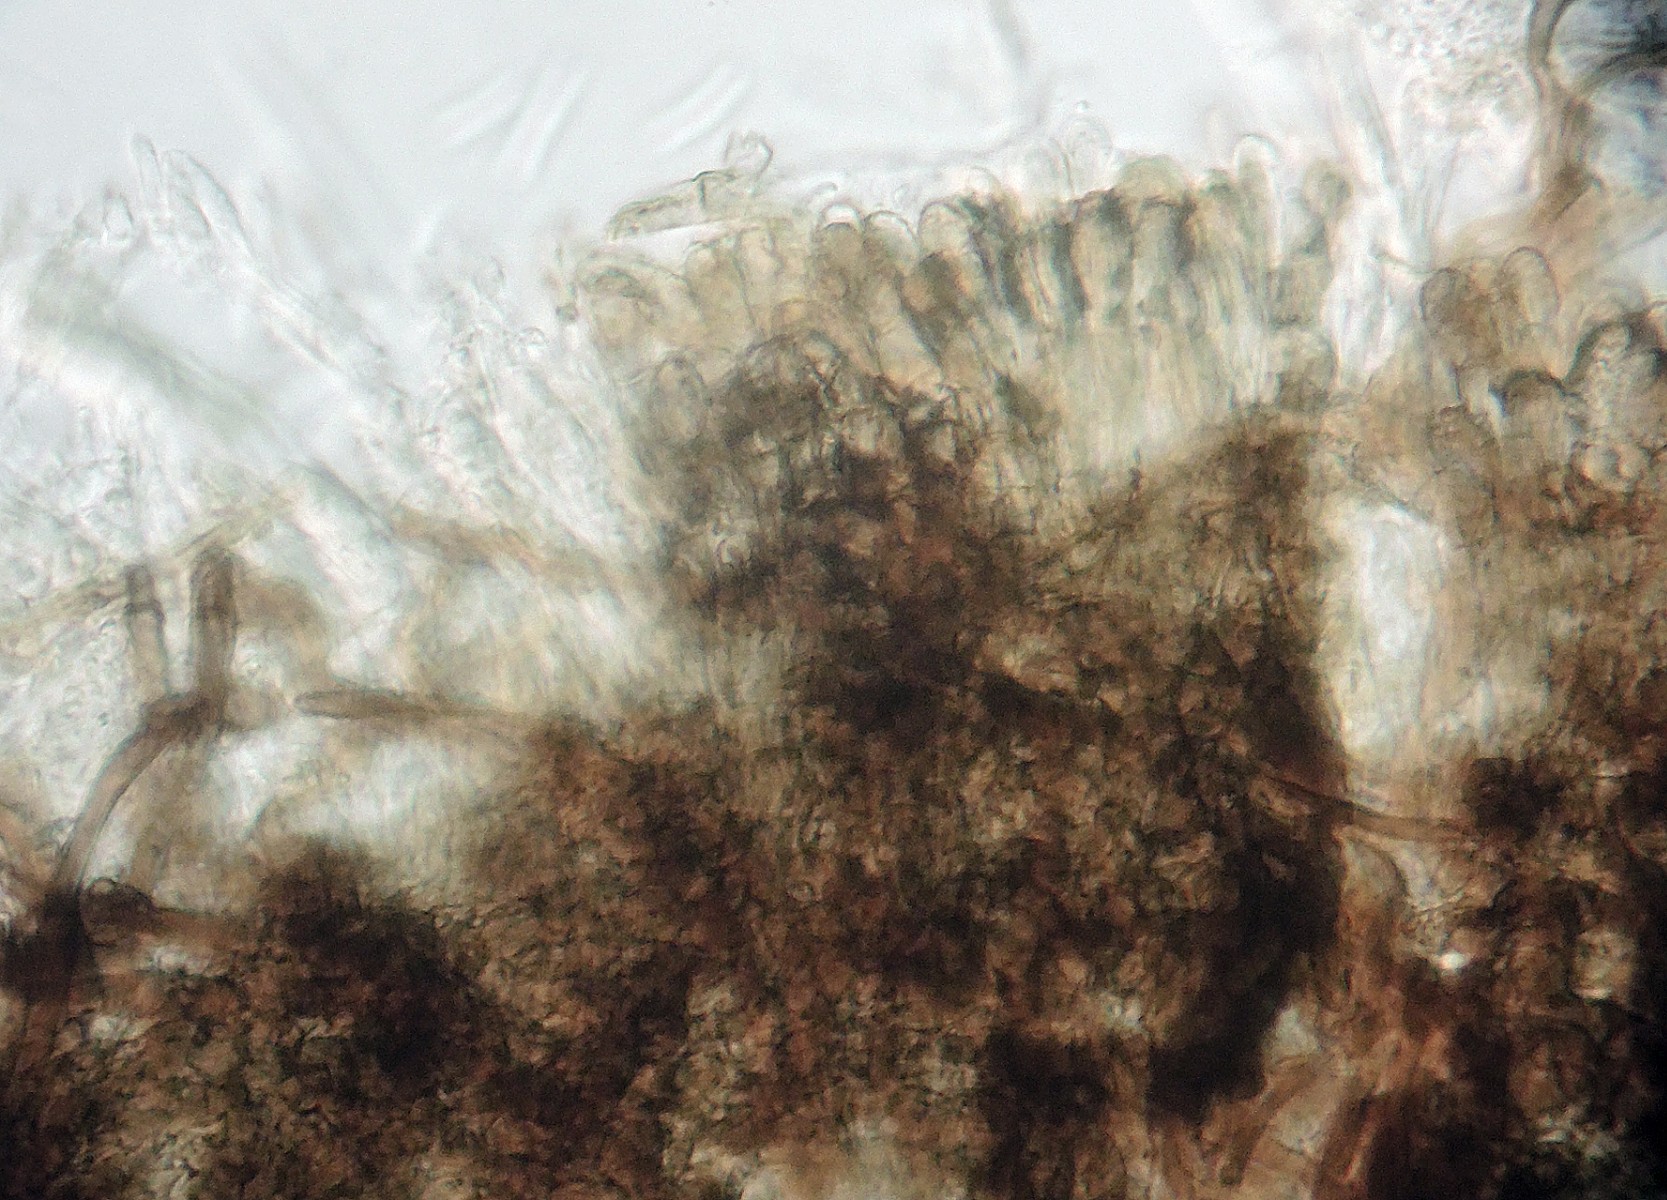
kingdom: Fungi
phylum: Ascomycota
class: Leotiomycetes
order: Helotiales
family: Mollisiaceae
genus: Mollisia
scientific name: Mollisia
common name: gråskive
